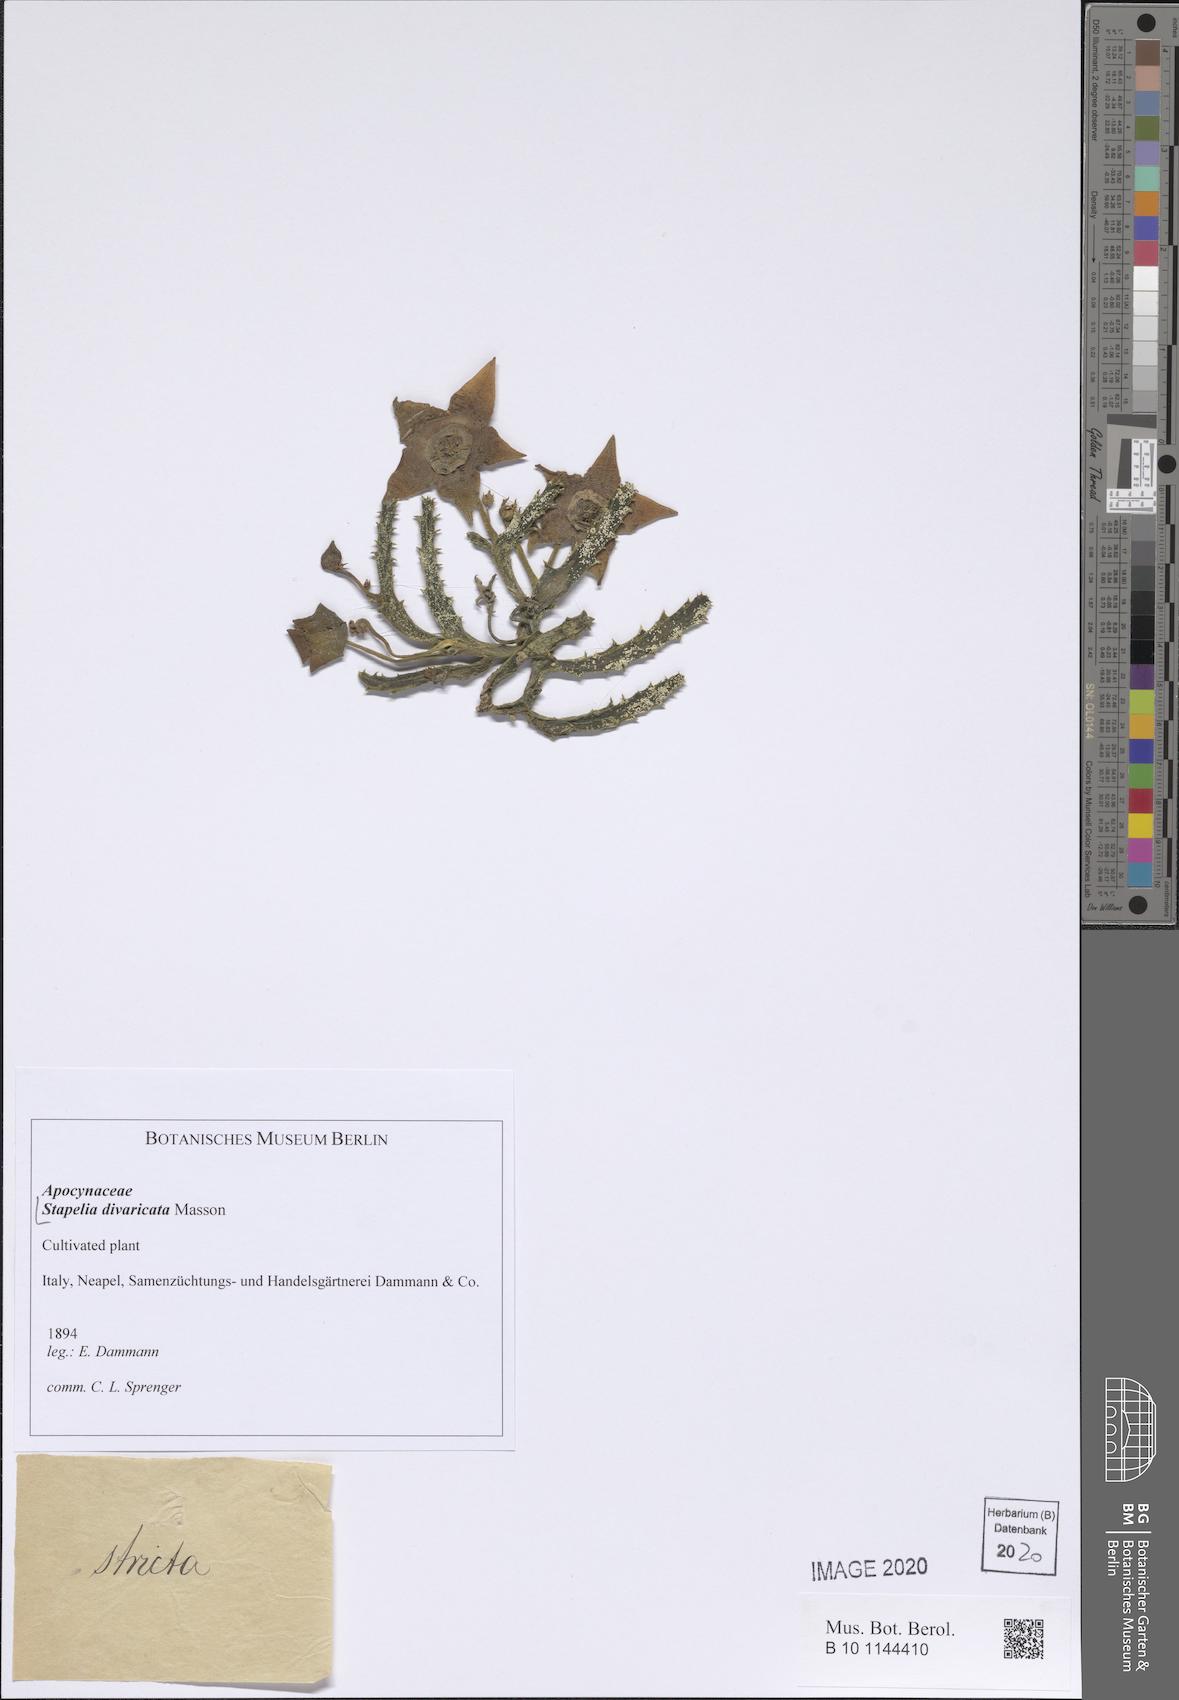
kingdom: Plantae
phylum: Tracheophyta
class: Magnoliopsida
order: Gentianales
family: Apocynaceae
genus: Ceropegia
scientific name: Ceropegia divaricata
